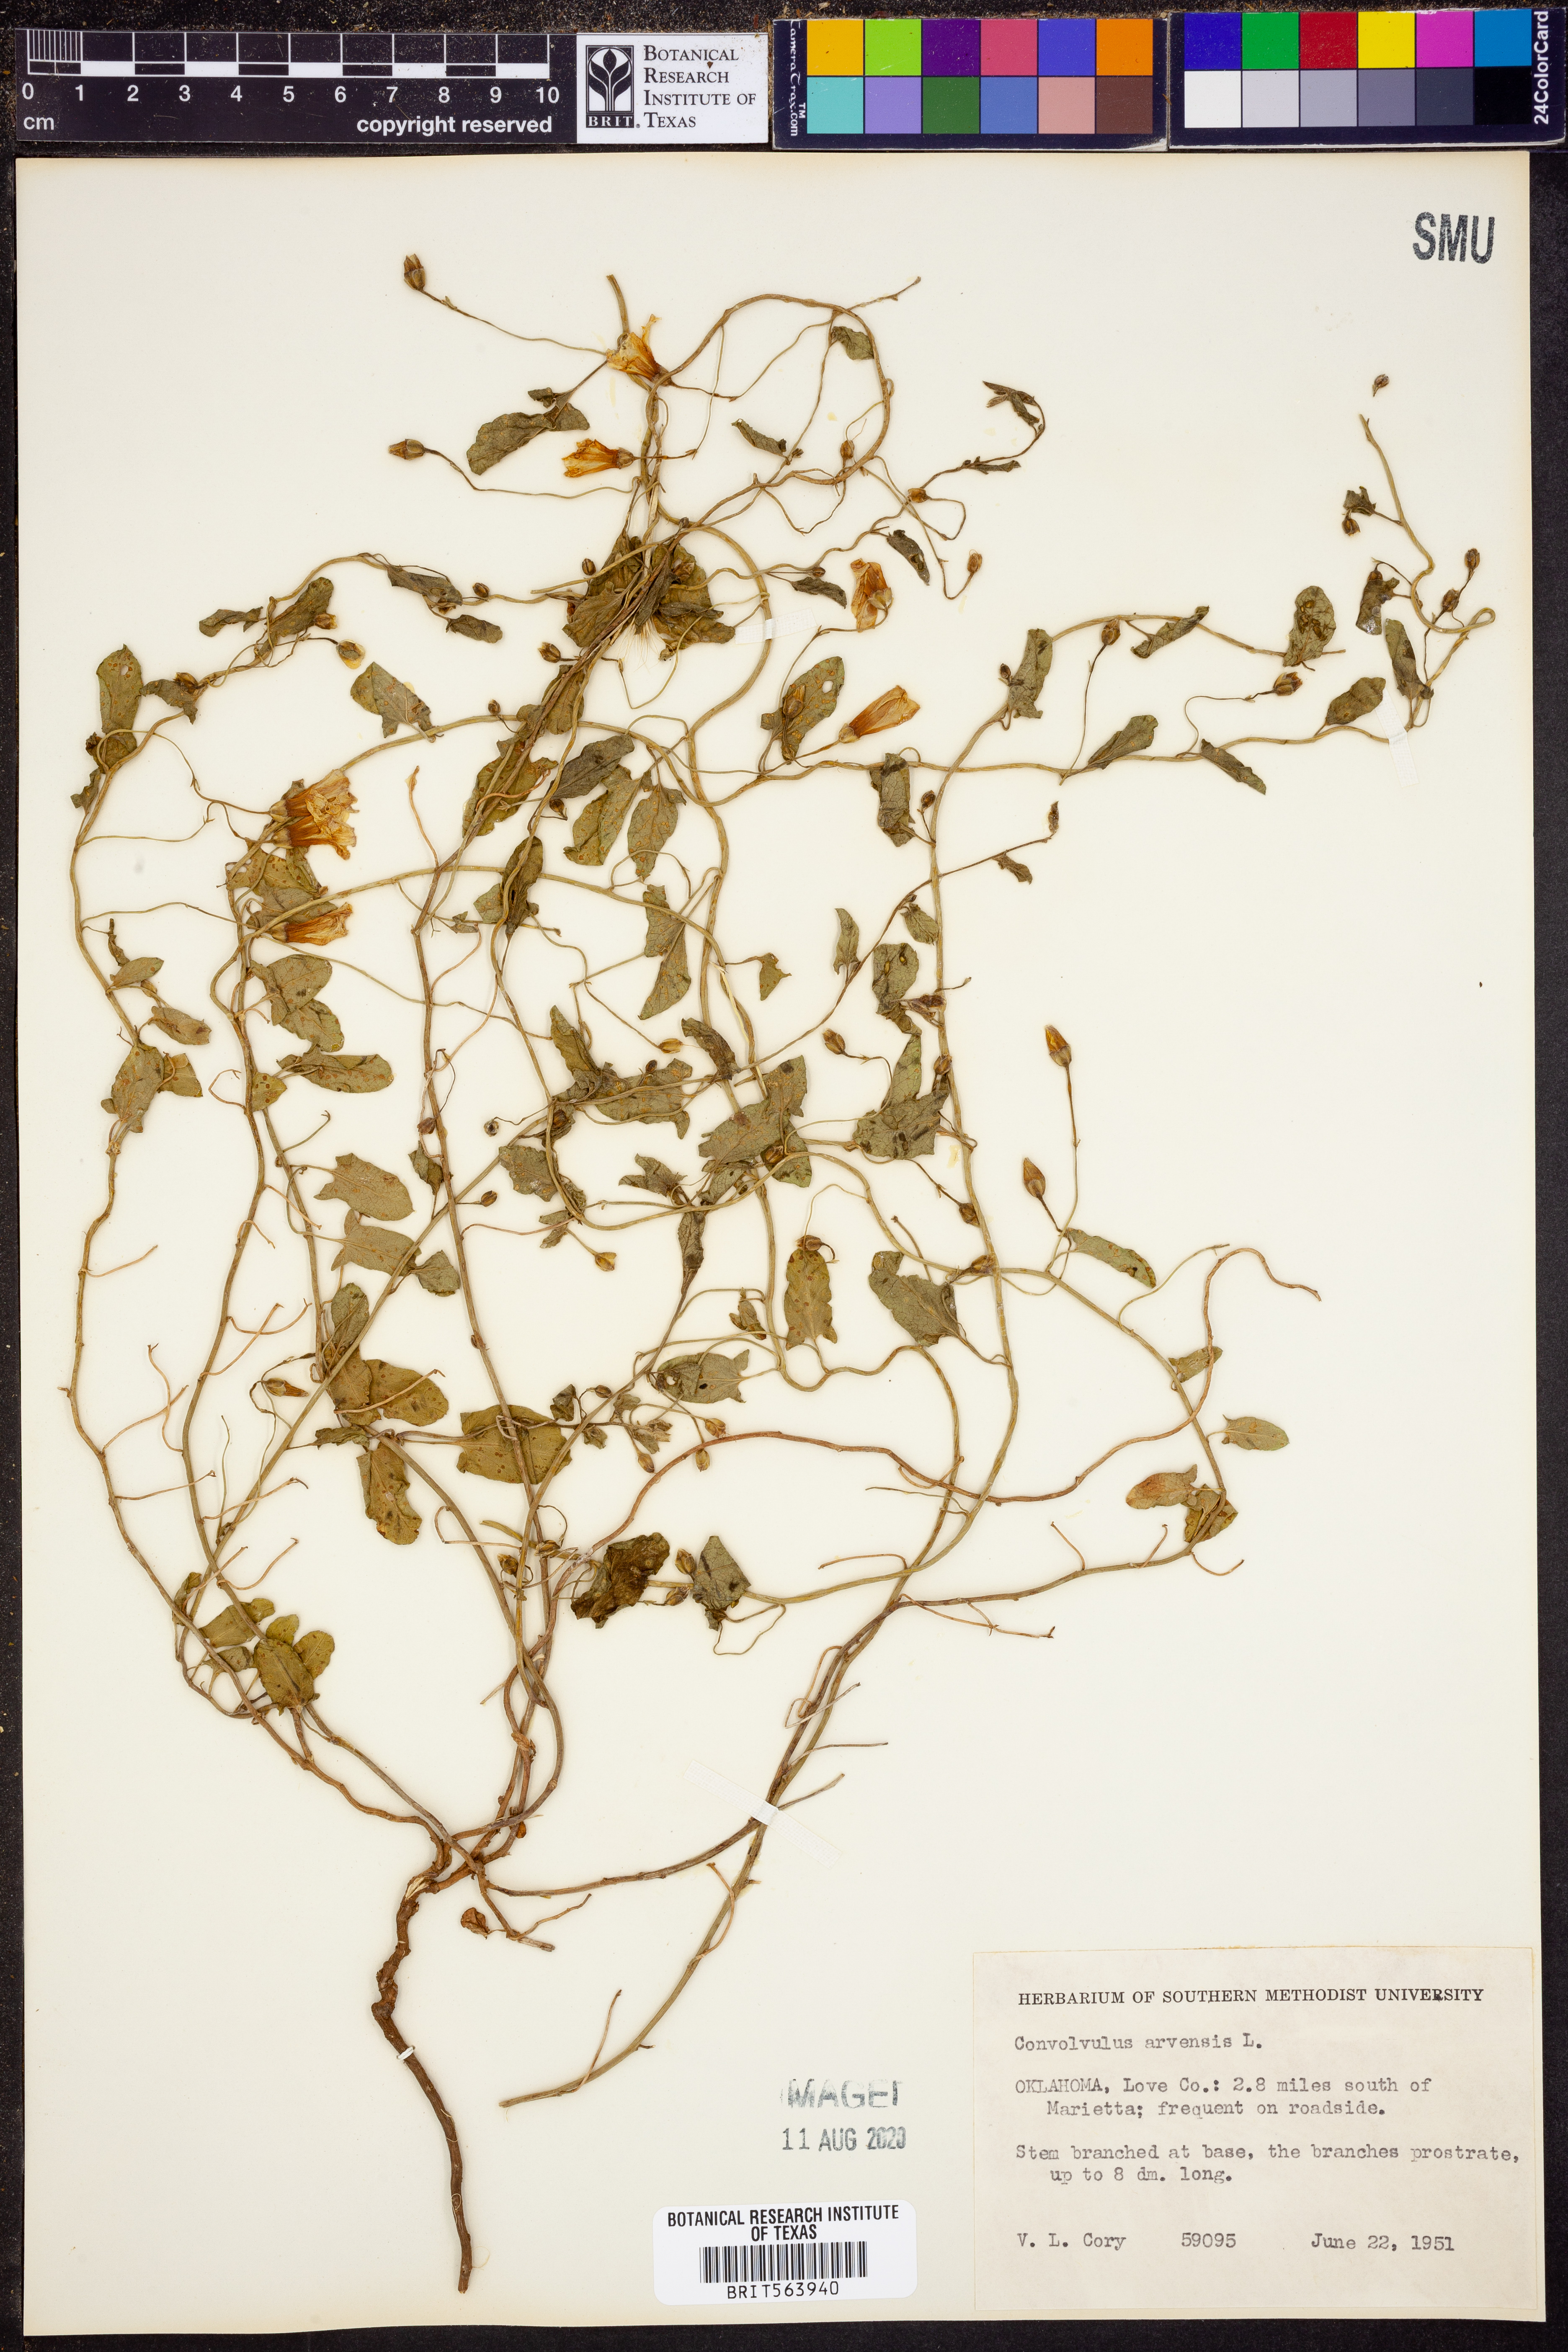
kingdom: Plantae
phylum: Tracheophyta
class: Magnoliopsida
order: Solanales
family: Convolvulaceae
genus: Convolvulus
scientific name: Convolvulus arvensis
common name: Field bindweed
